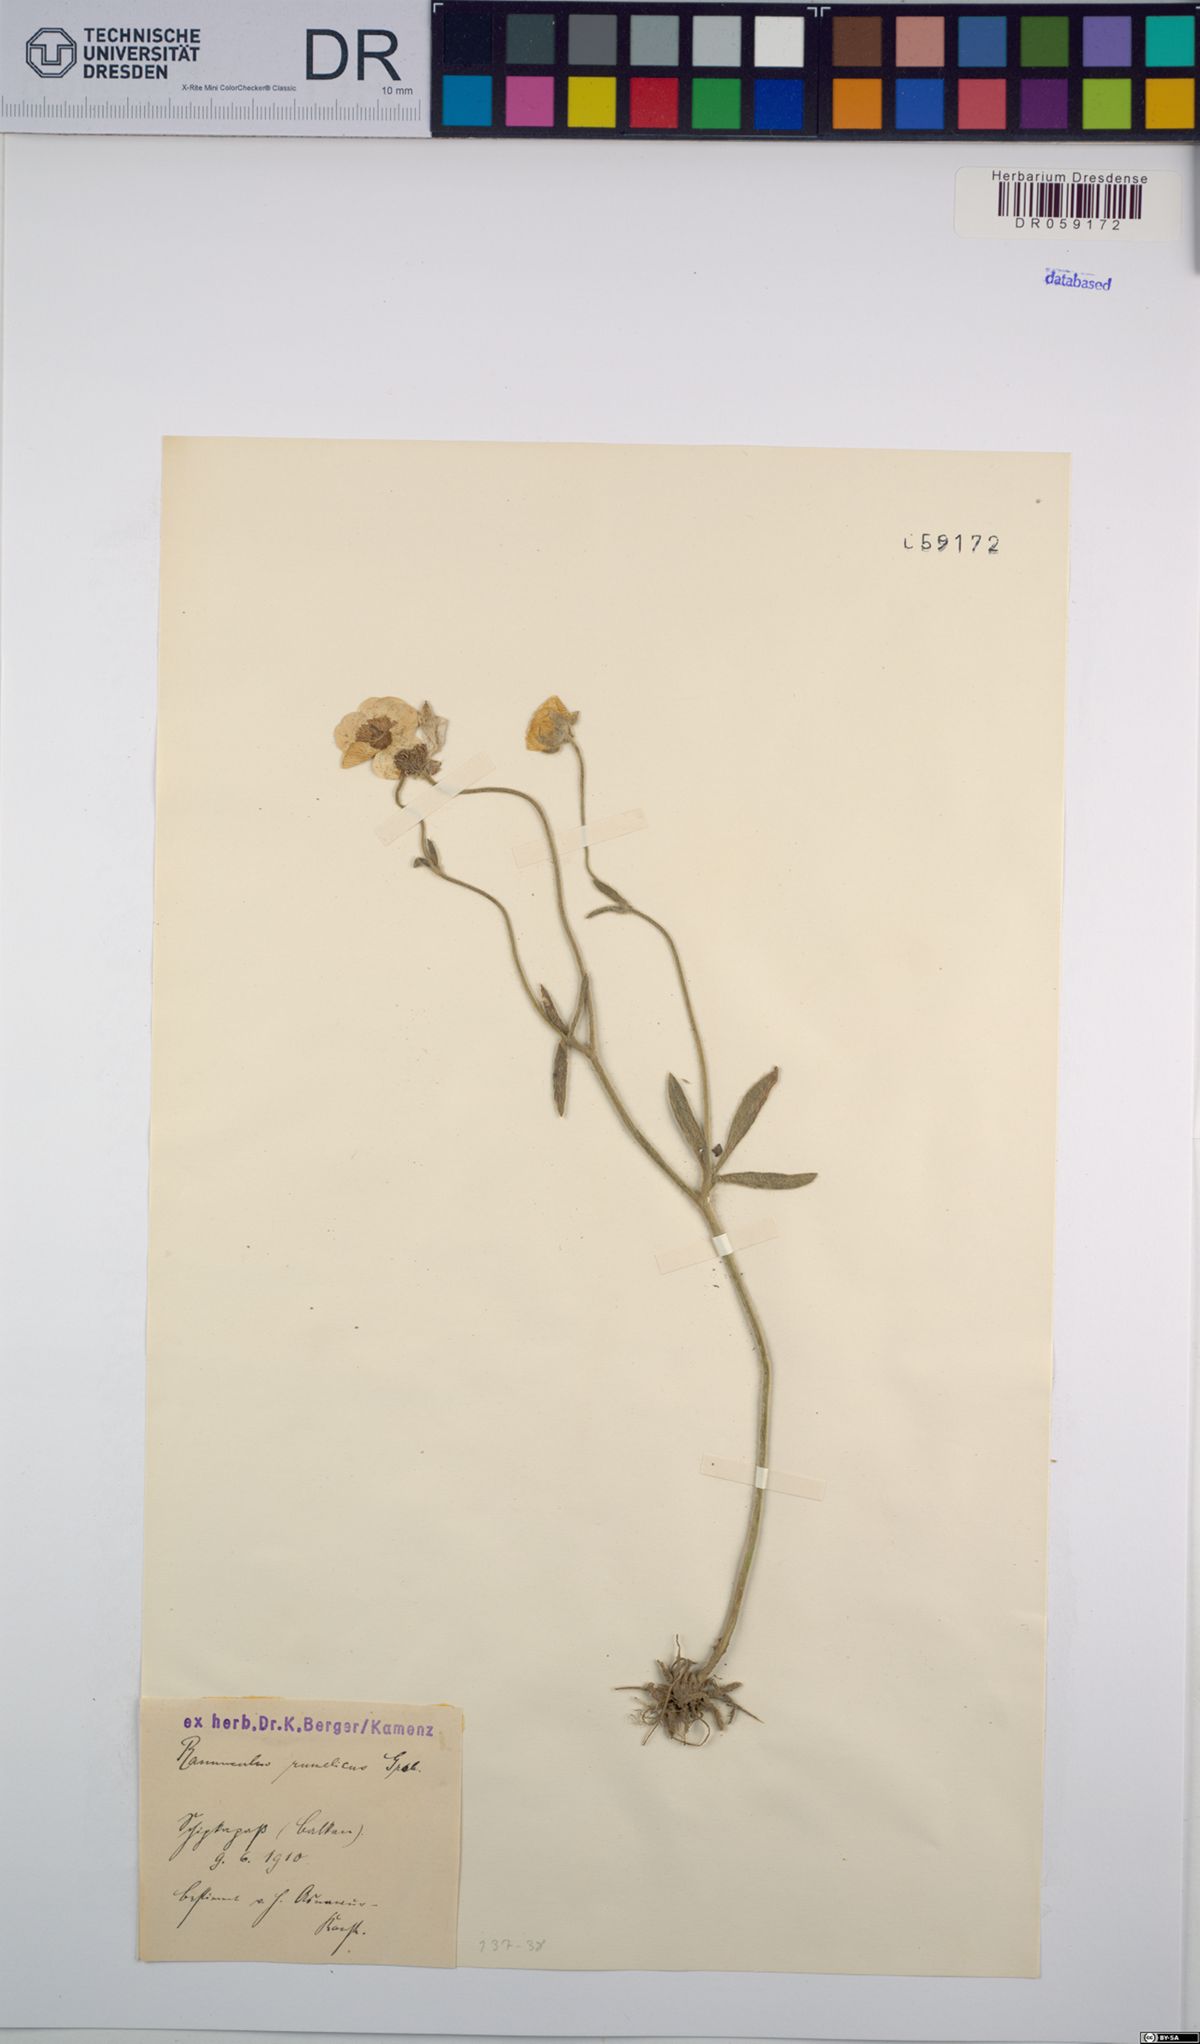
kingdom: Plantae
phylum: Tracheophyta
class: Magnoliopsida
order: Ranunculales
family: Ranunculaceae
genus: Ranunculus
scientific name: Ranunculus rumelicus
